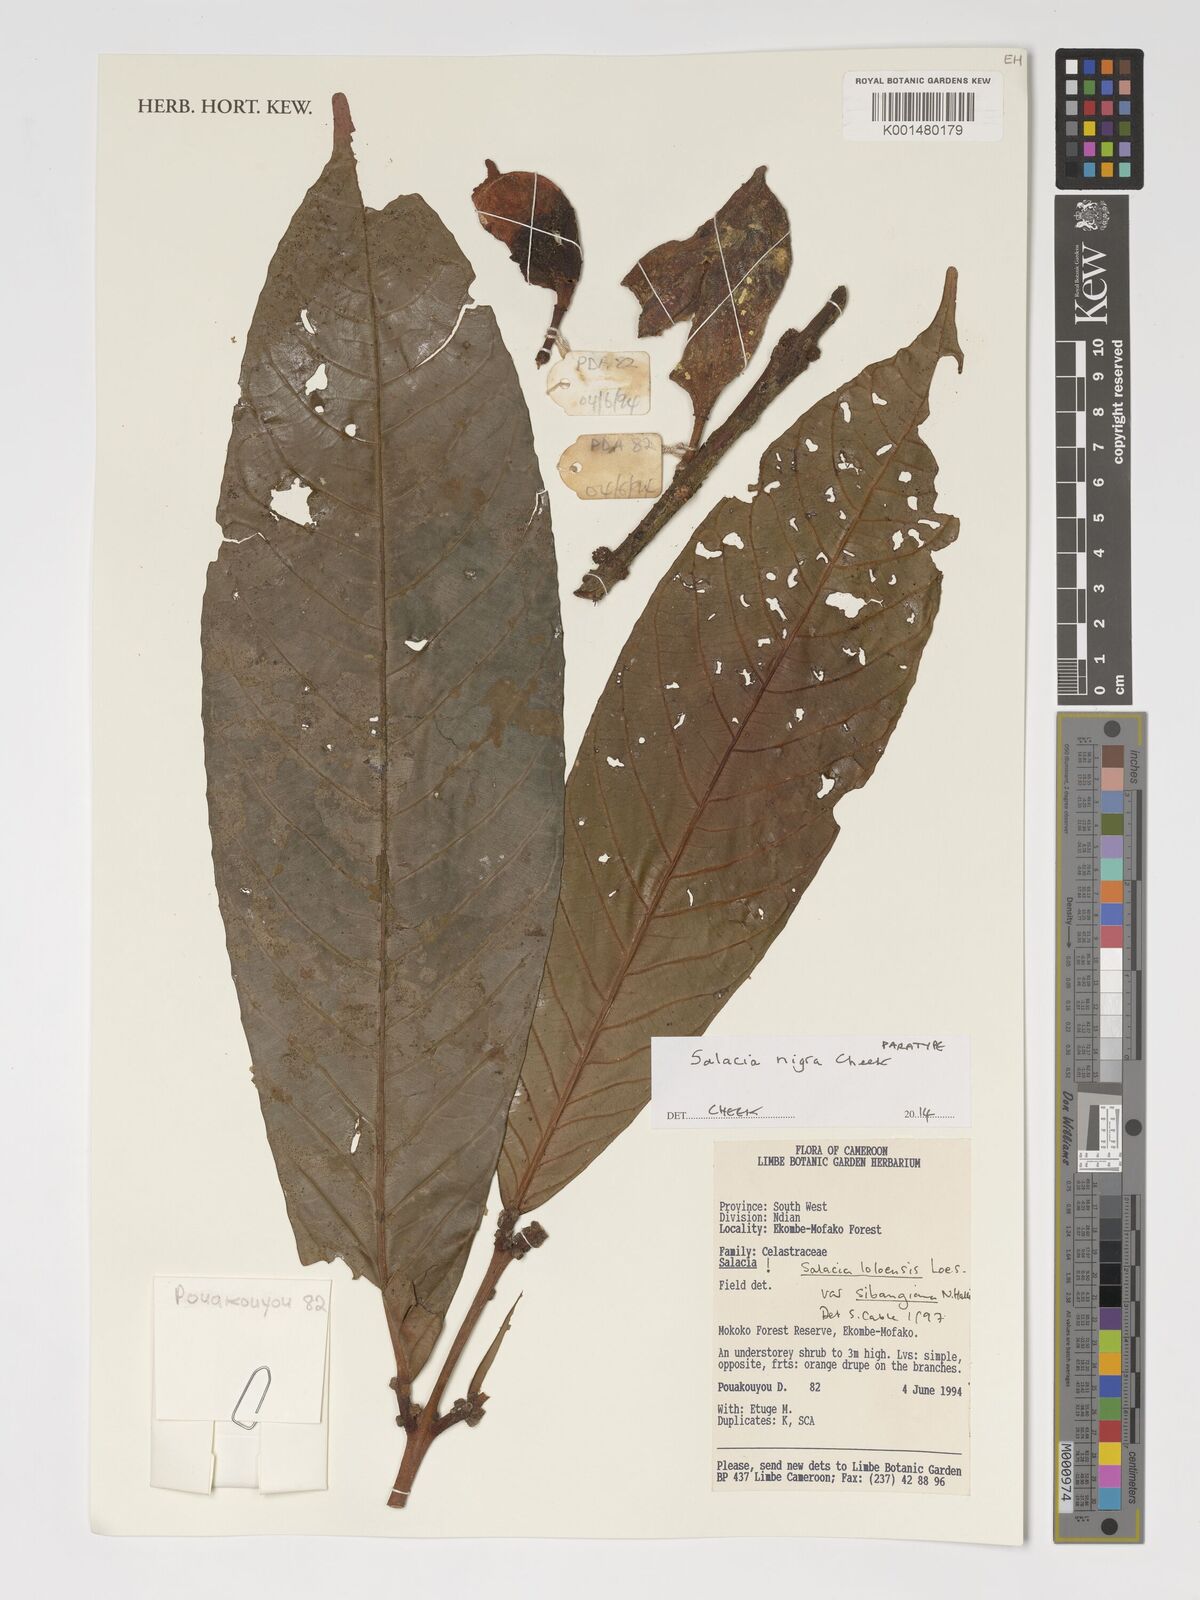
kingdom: Plantae
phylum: Tracheophyta
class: Magnoliopsida
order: Celastrales
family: Celastraceae
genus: Salacia
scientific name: Salacia nigra
